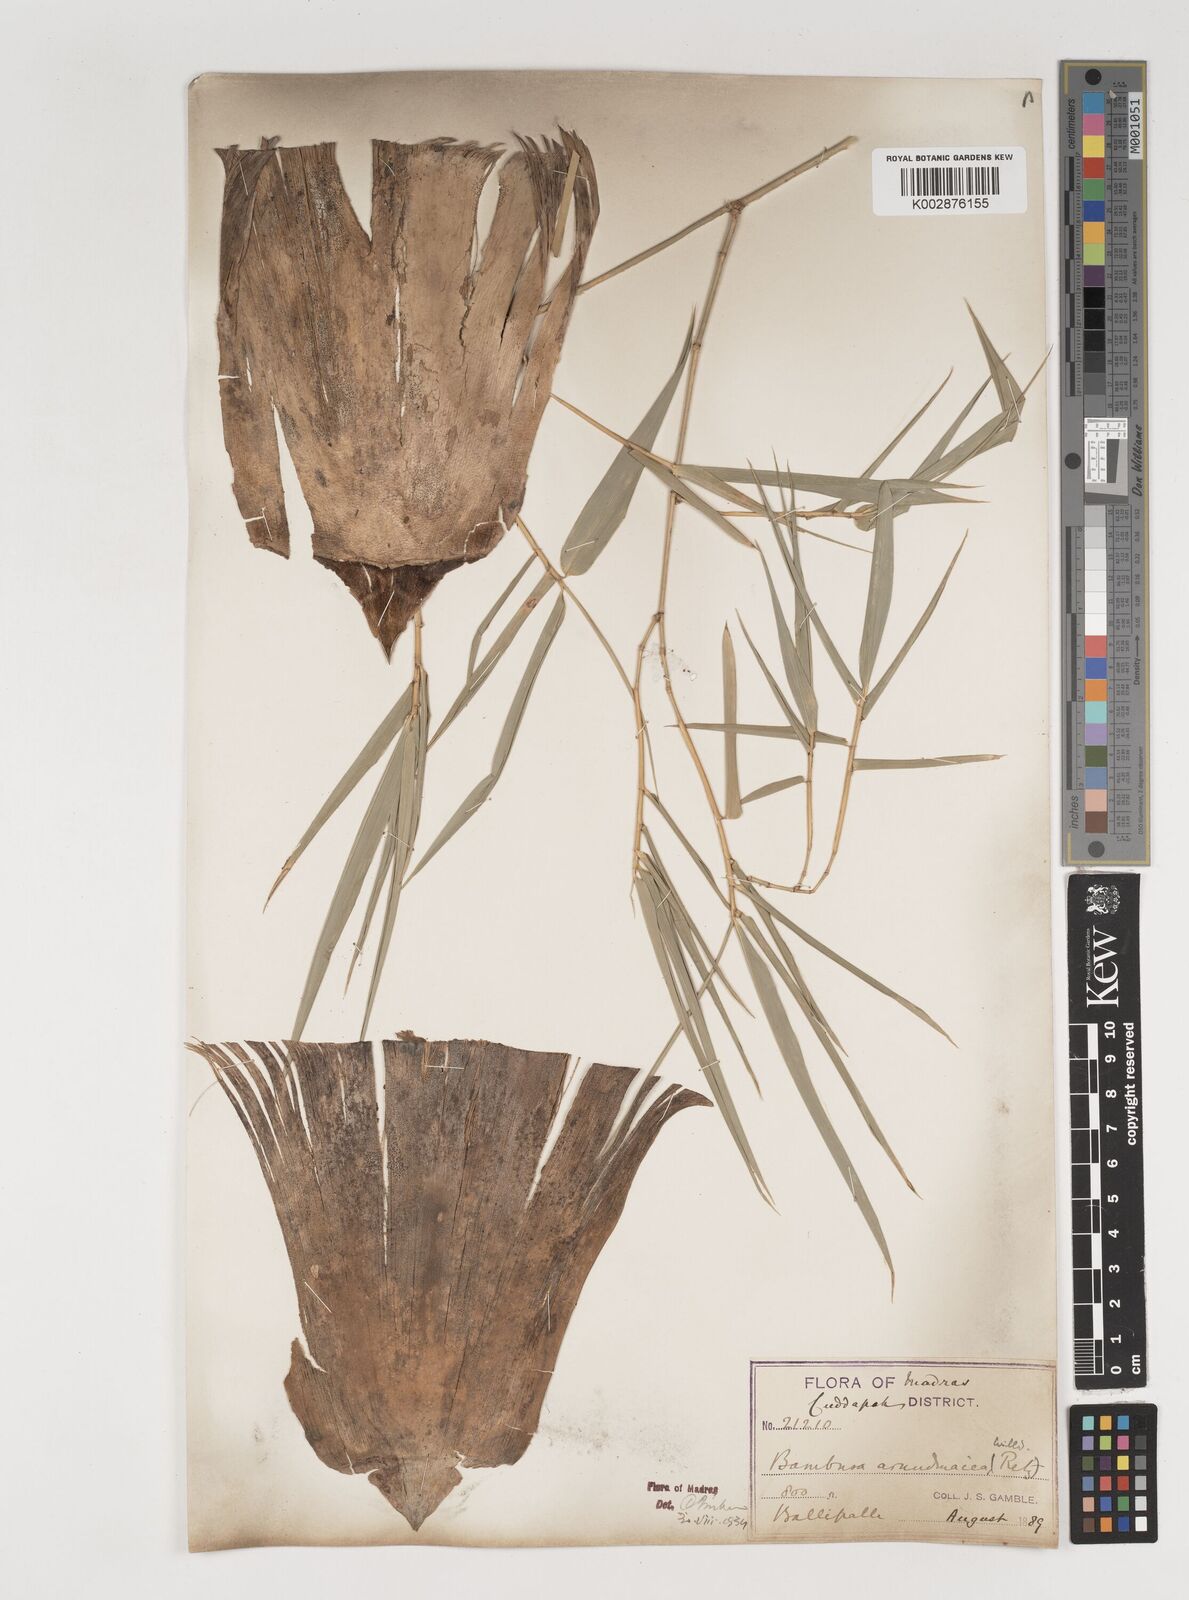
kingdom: Plantae
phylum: Tracheophyta
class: Liliopsida
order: Poales
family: Poaceae
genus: Bambusa
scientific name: Bambusa bambos
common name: Indian thorny bamboo
